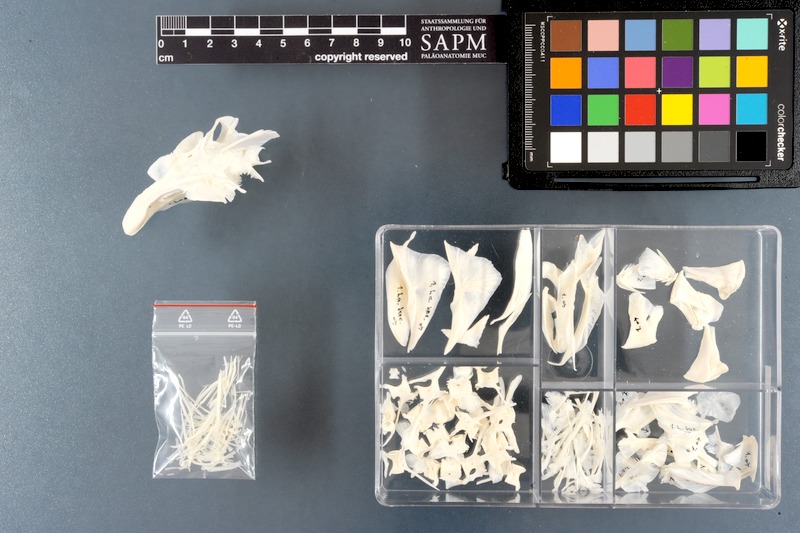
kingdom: Animalia
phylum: Chordata
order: Tetraodontiformes
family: Tetraodontidae
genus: Lagocephalus
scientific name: Lagocephalus laevigatus
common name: Puffer
